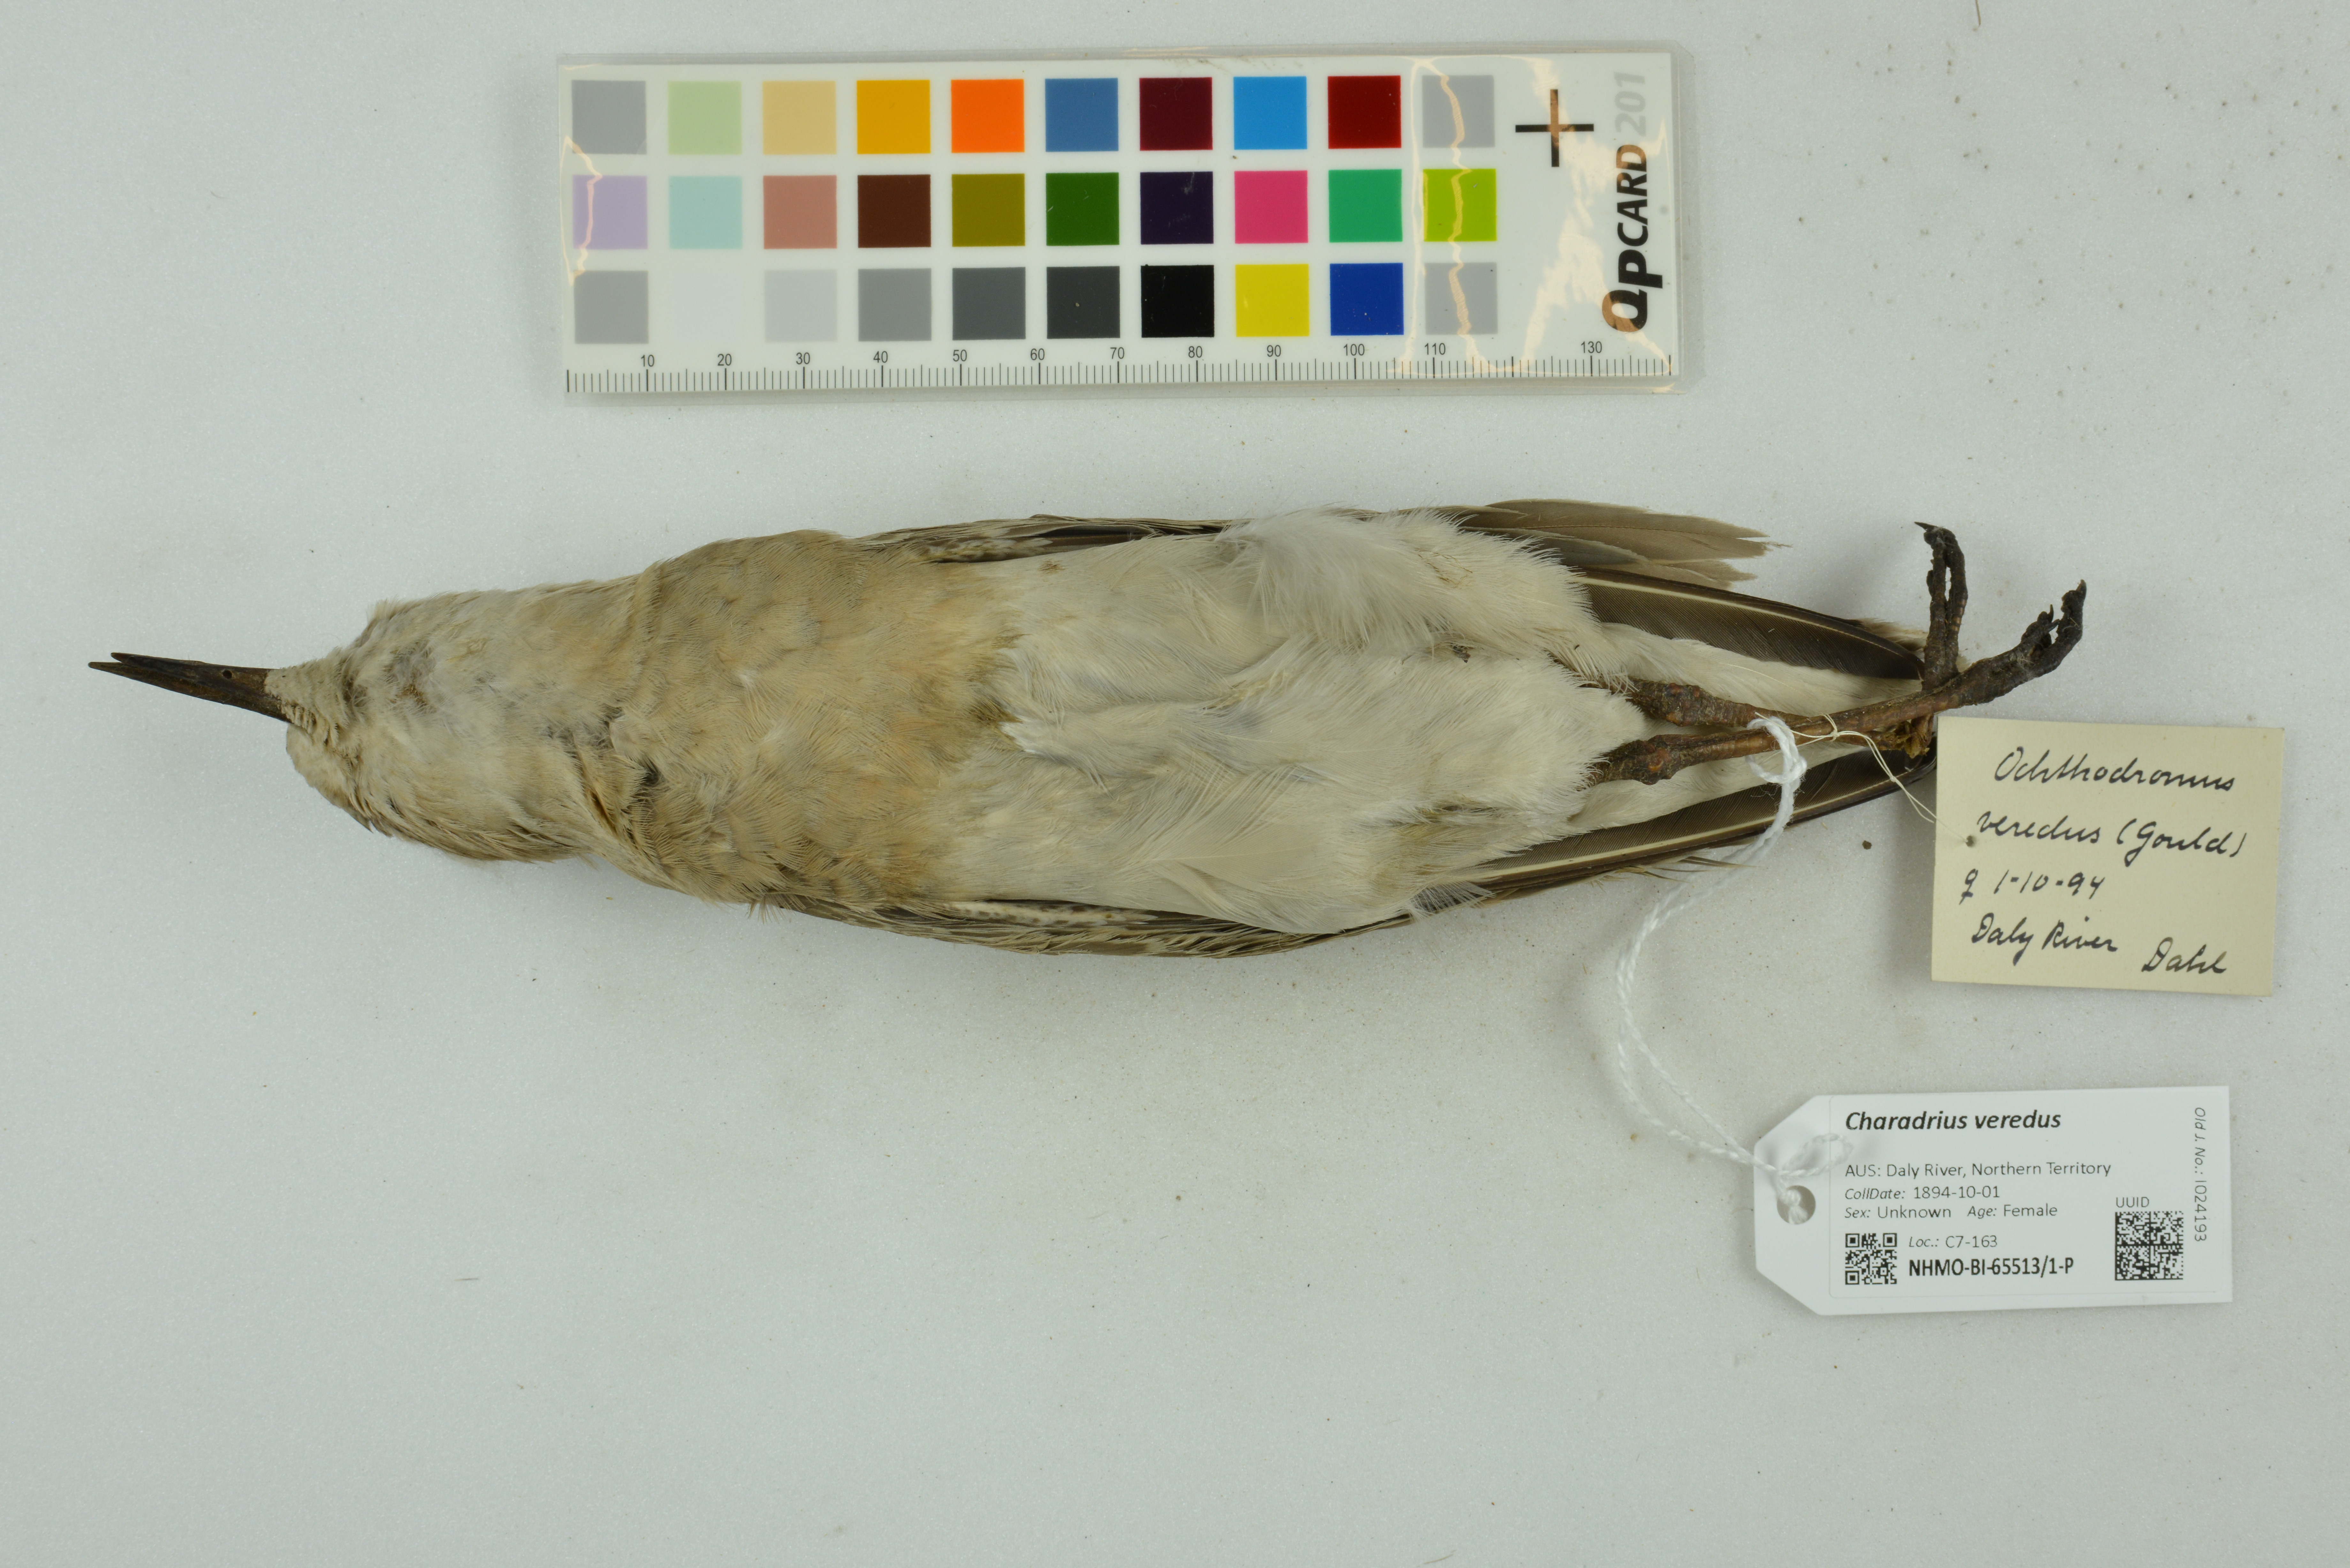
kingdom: Animalia
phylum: Chordata
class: Aves
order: Charadriiformes
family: Charadriidae
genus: Charadrius
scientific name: Charadrius veredus
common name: Oriental plover
